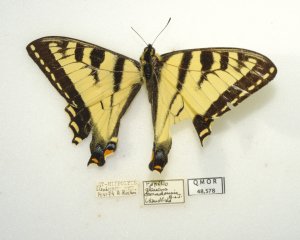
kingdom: Animalia
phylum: Arthropoda
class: Insecta
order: Lepidoptera
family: Papilionidae
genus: Pterourus
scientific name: Pterourus canadensis
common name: Canadian Tiger Swallowtail
